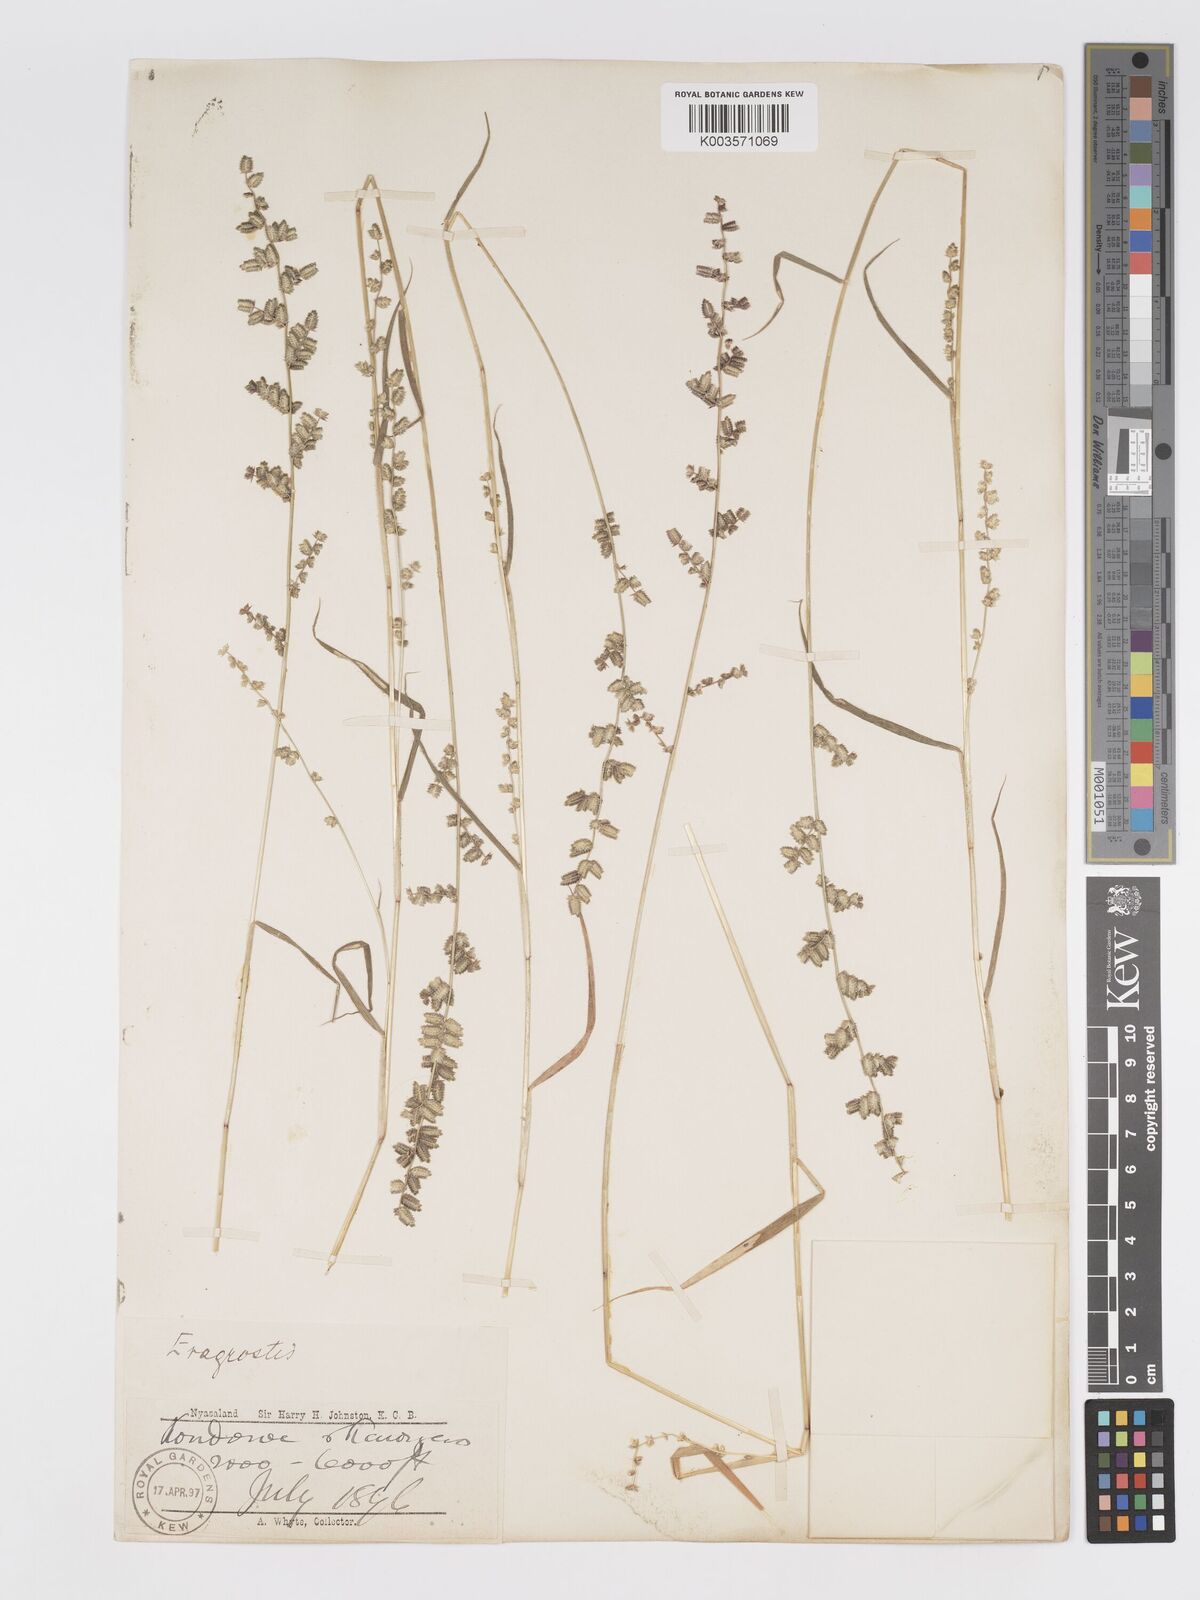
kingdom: Plantae
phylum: Tracheophyta
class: Liliopsida
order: Poales
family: Poaceae
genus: Eragrostis
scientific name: Eragrostis flavicans
